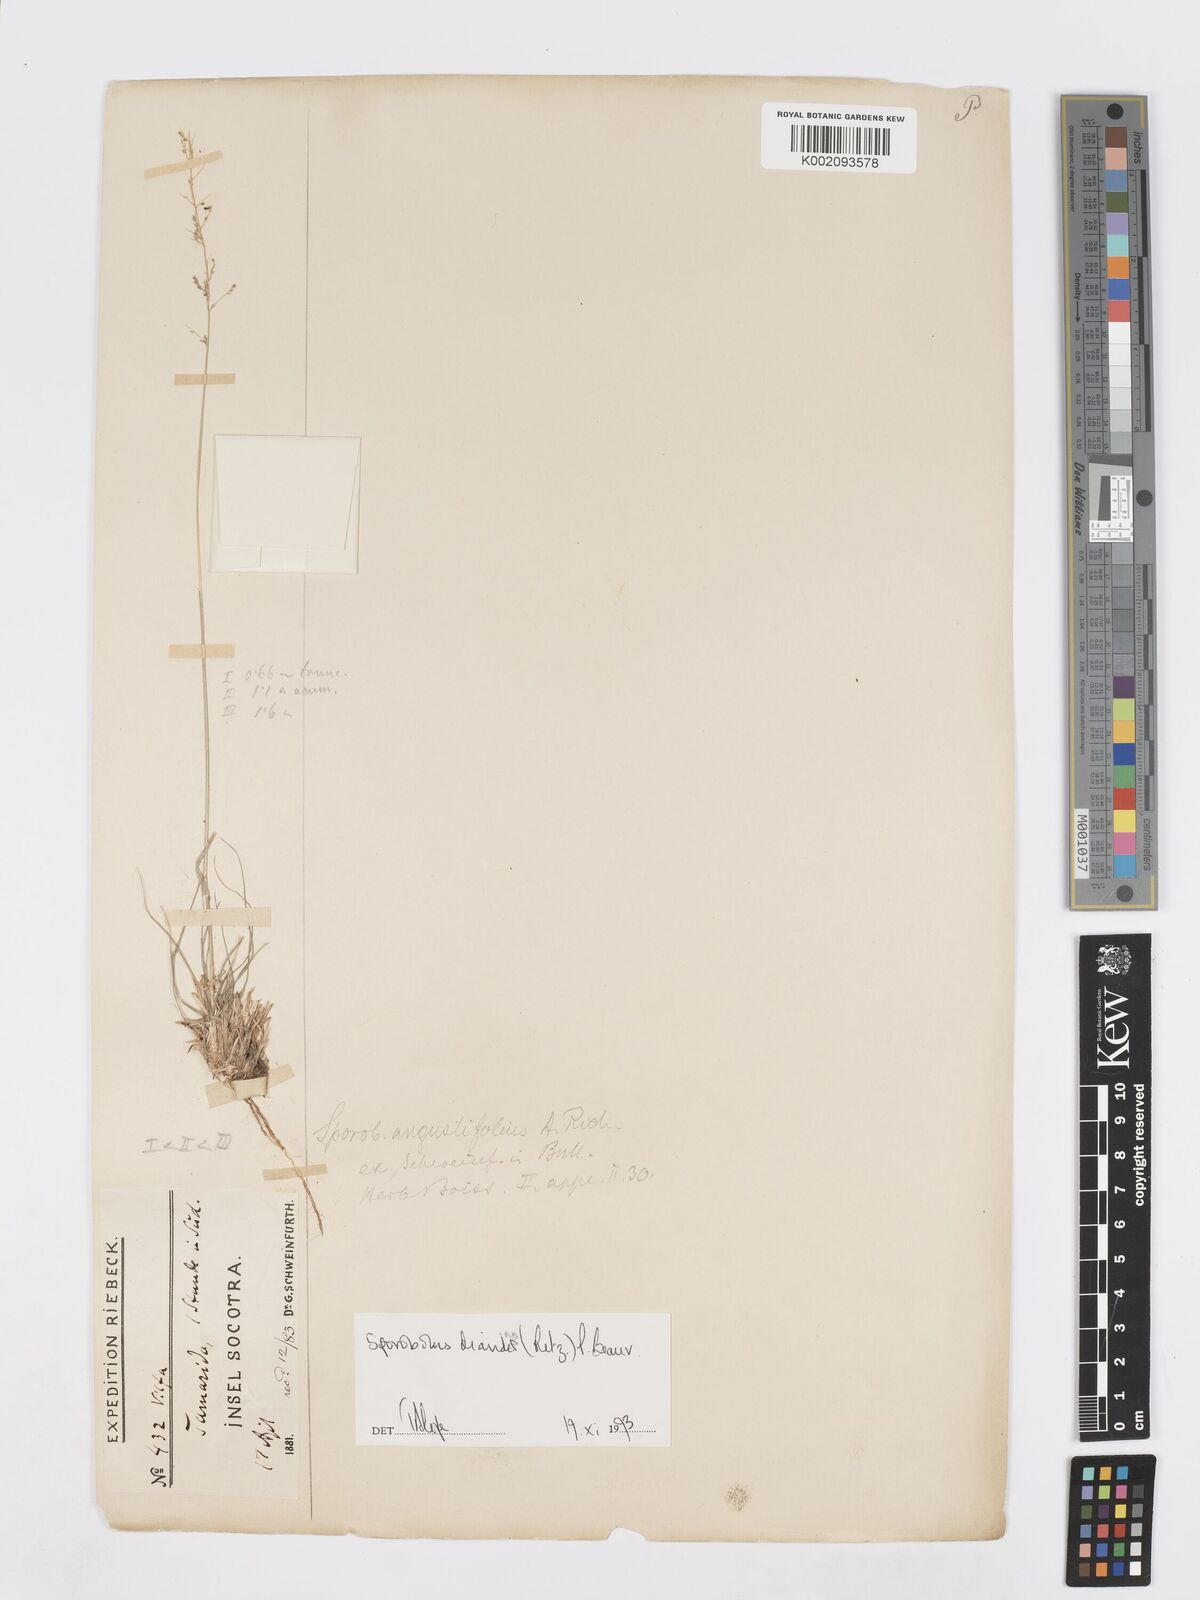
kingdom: Plantae
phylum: Tracheophyta
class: Liliopsida
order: Poales
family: Poaceae
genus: Sporobolus
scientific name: Sporobolus diandrus
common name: Tussock dropseed
